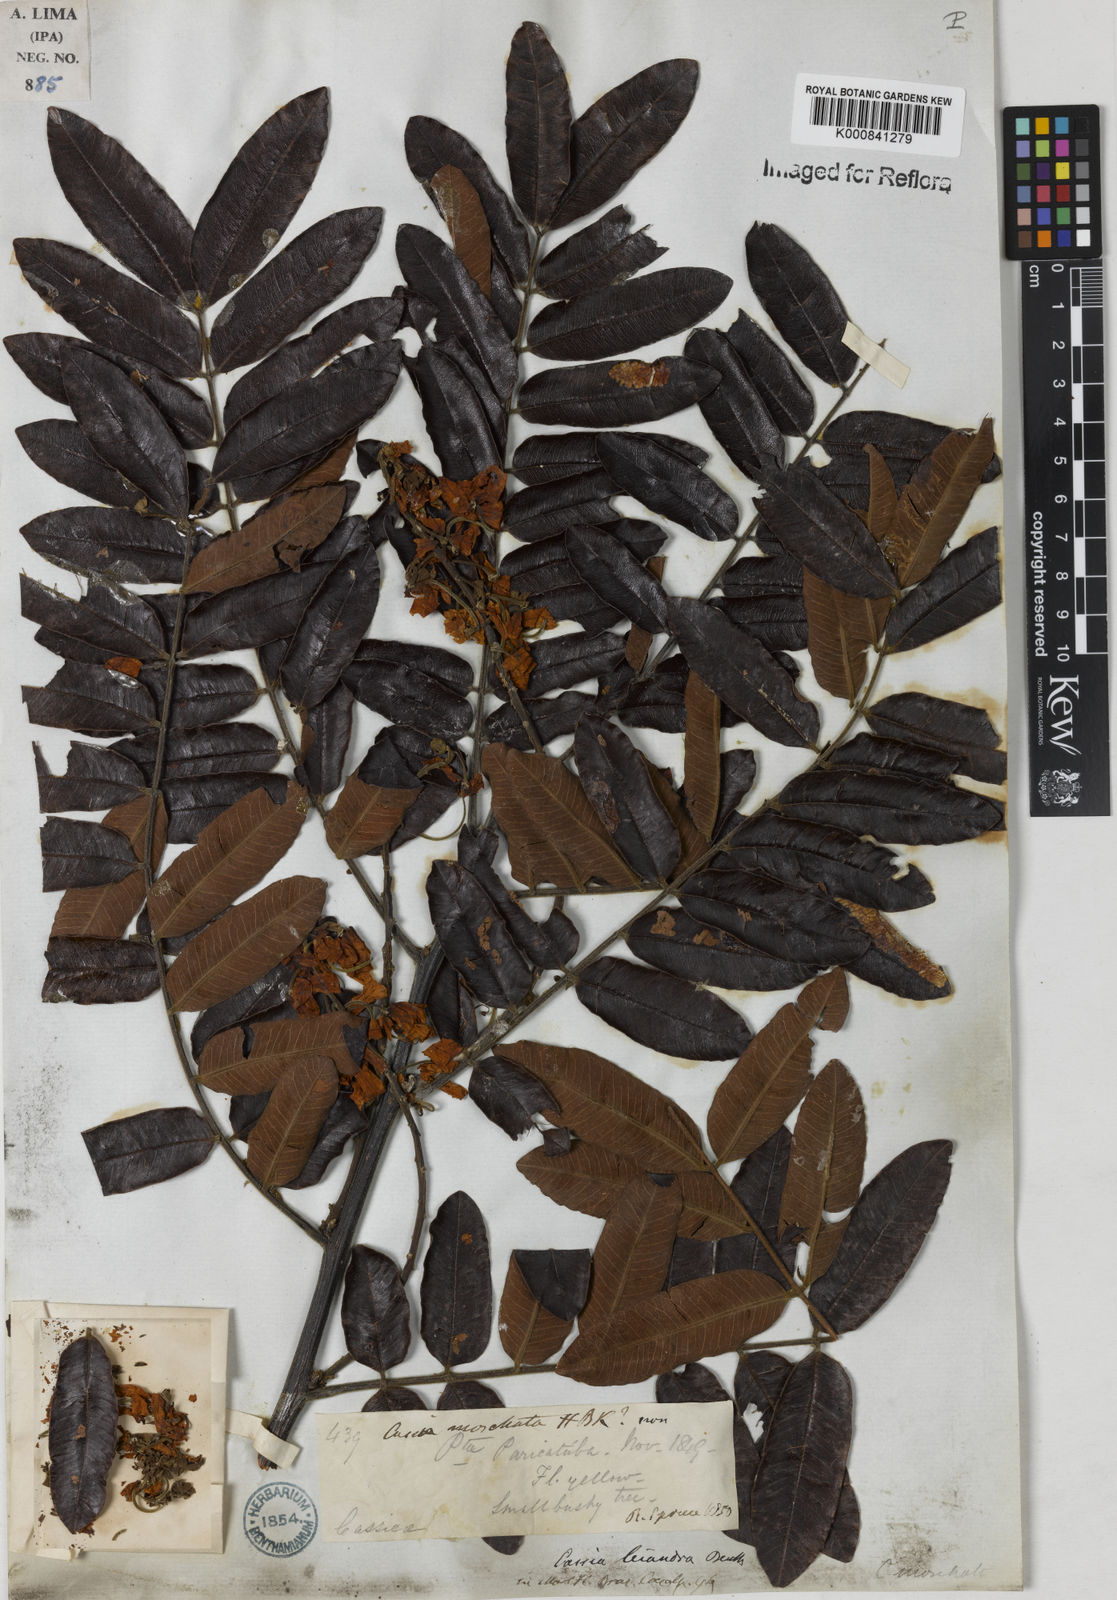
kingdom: Plantae
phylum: Tracheophyta
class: Magnoliopsida
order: Fabales
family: Fabaceae
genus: Cassia
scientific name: Cassia leiandra
